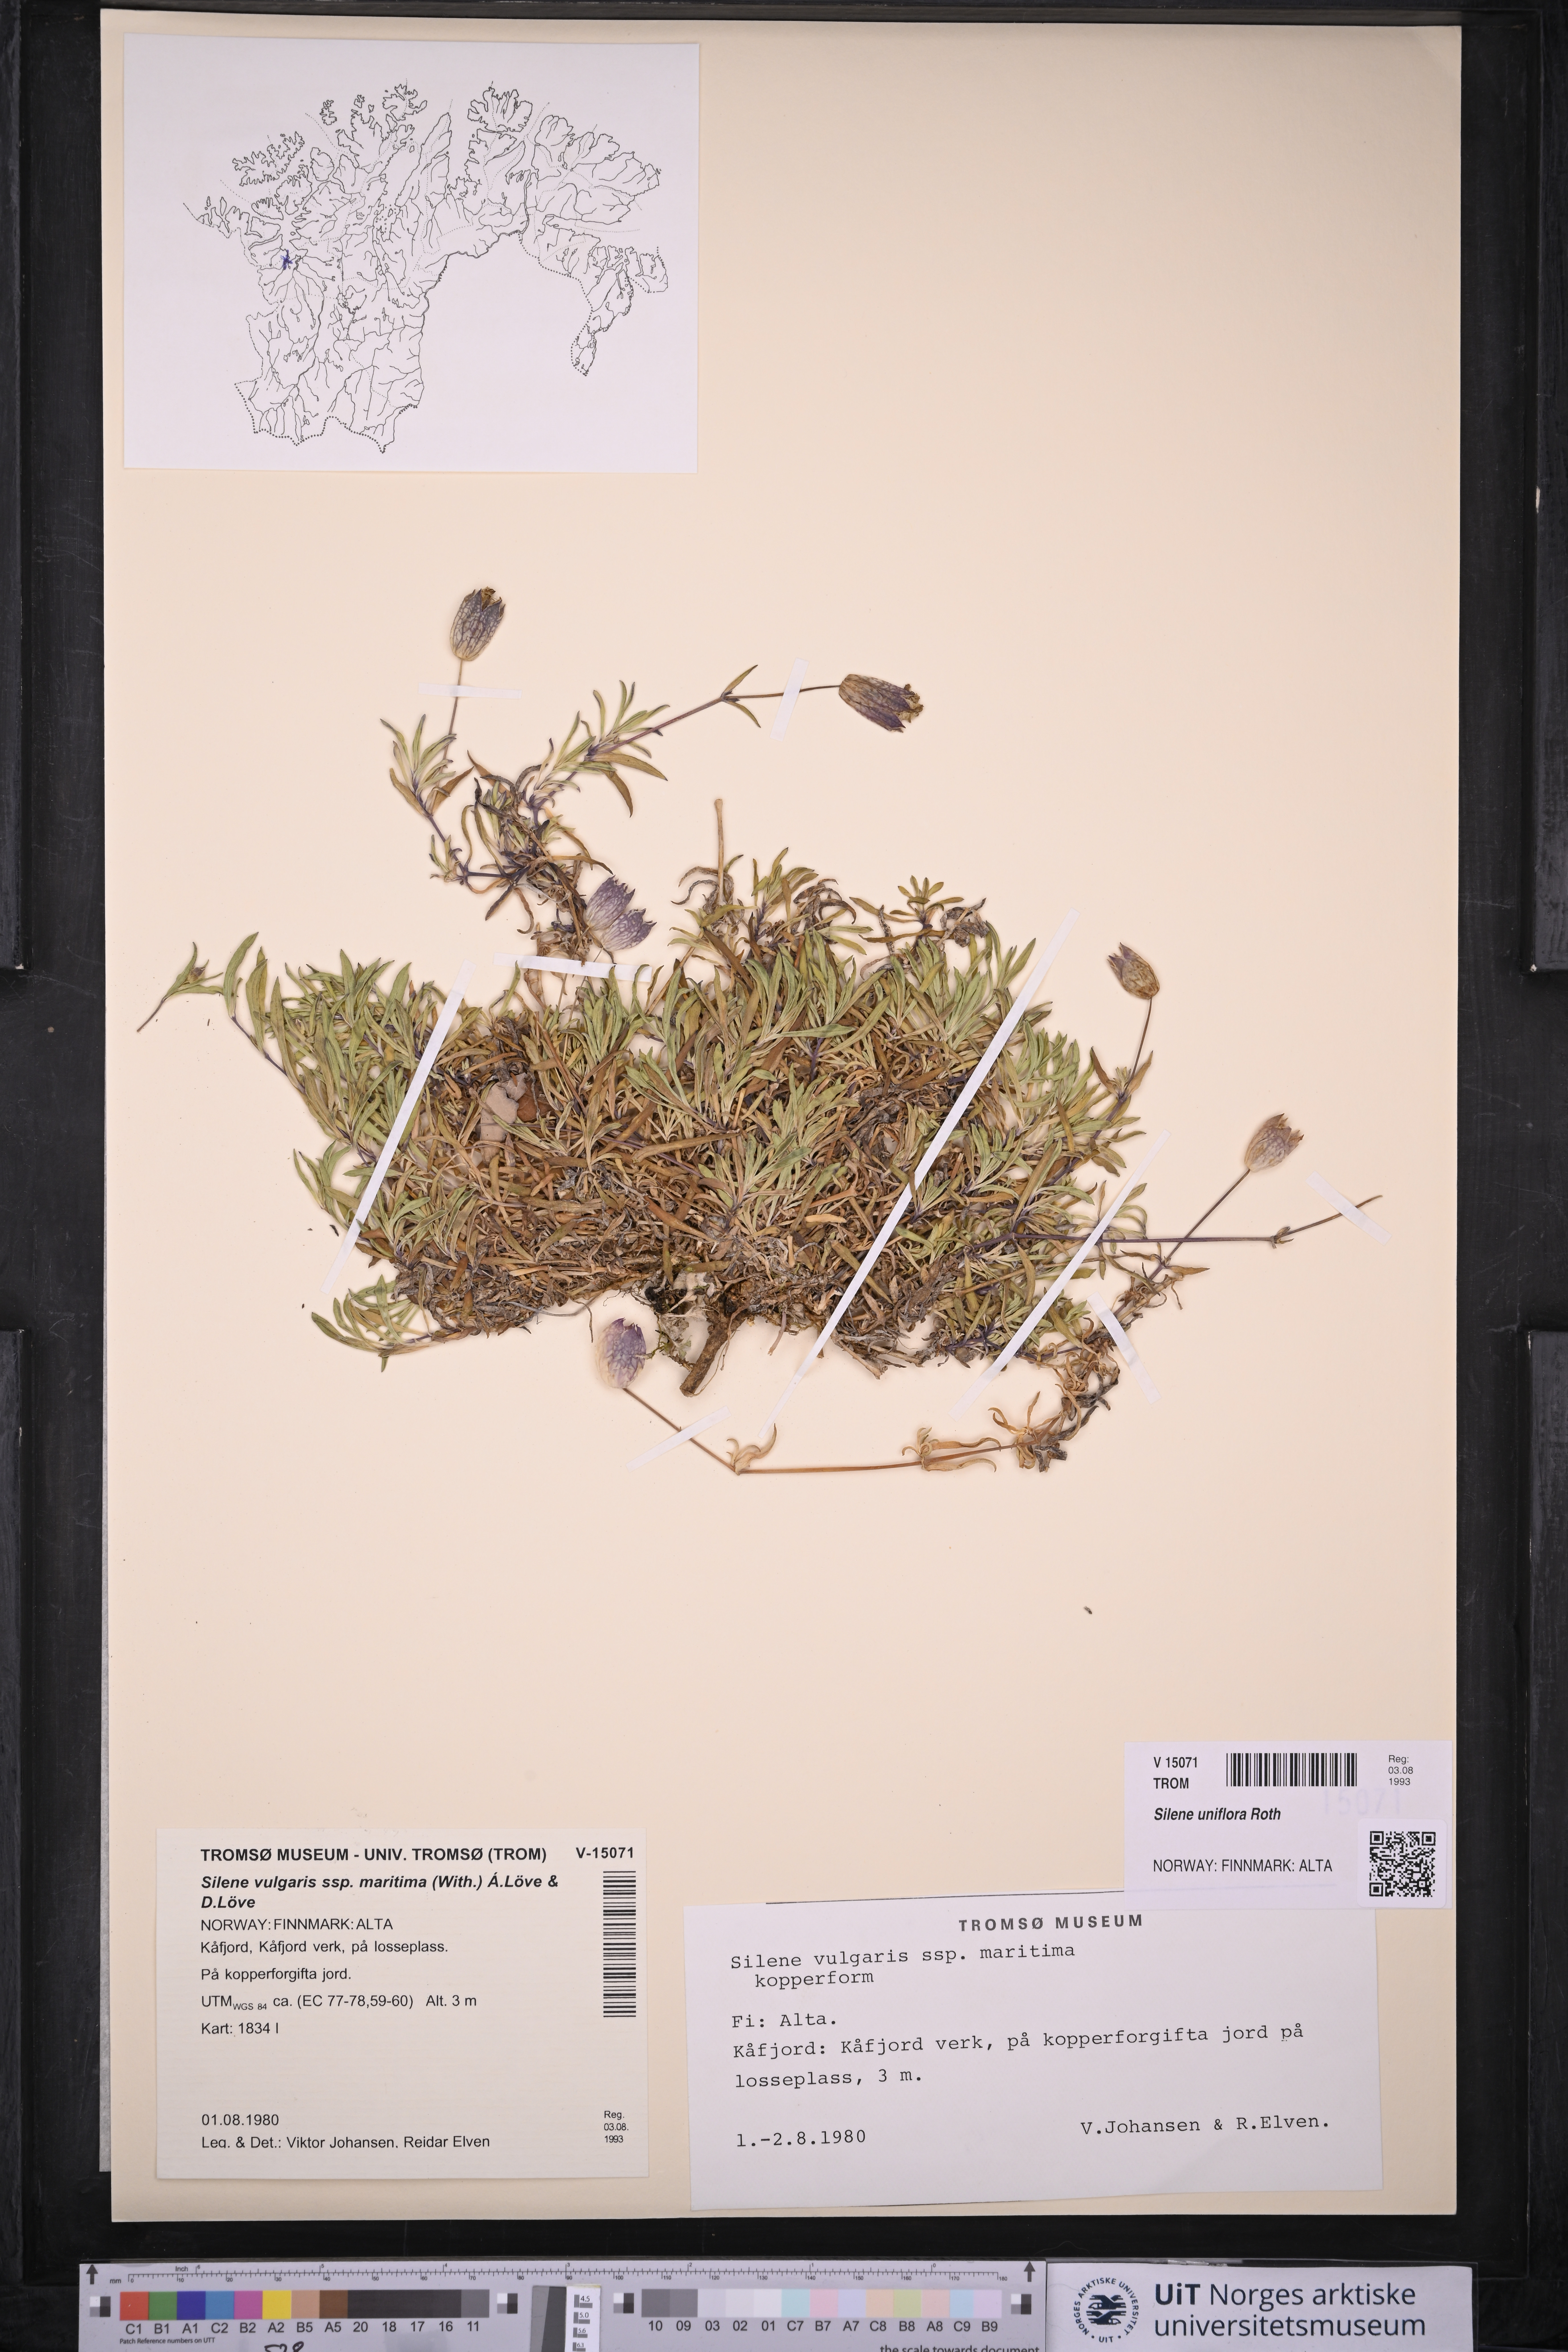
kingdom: Plantae
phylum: Tracheophyta
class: Magnoliopsida
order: Caryophyllales
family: Caryophyllaceae
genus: Silene
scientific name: Silene uniflora
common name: Sea campion
